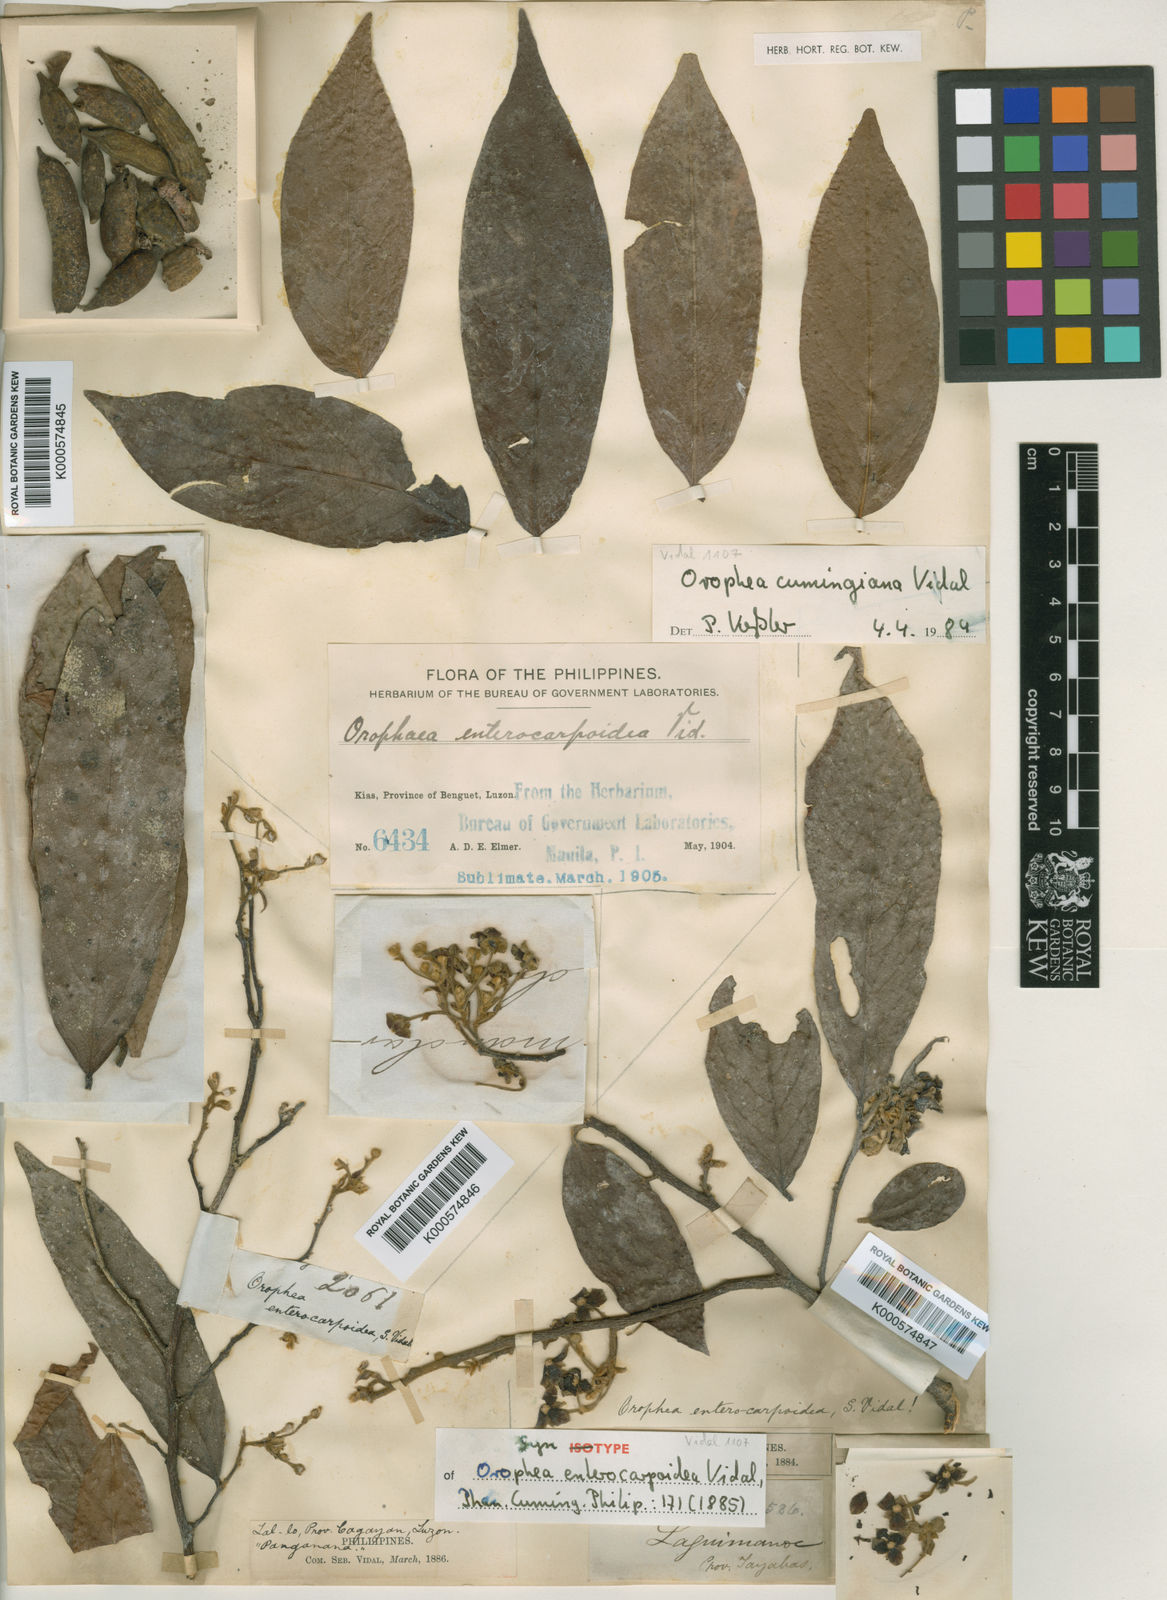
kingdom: Plantae
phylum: Tracheophyta
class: Magnoliopsida
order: Magnoliales
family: Annonaceae
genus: Orophea
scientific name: Orophea cumingiana
